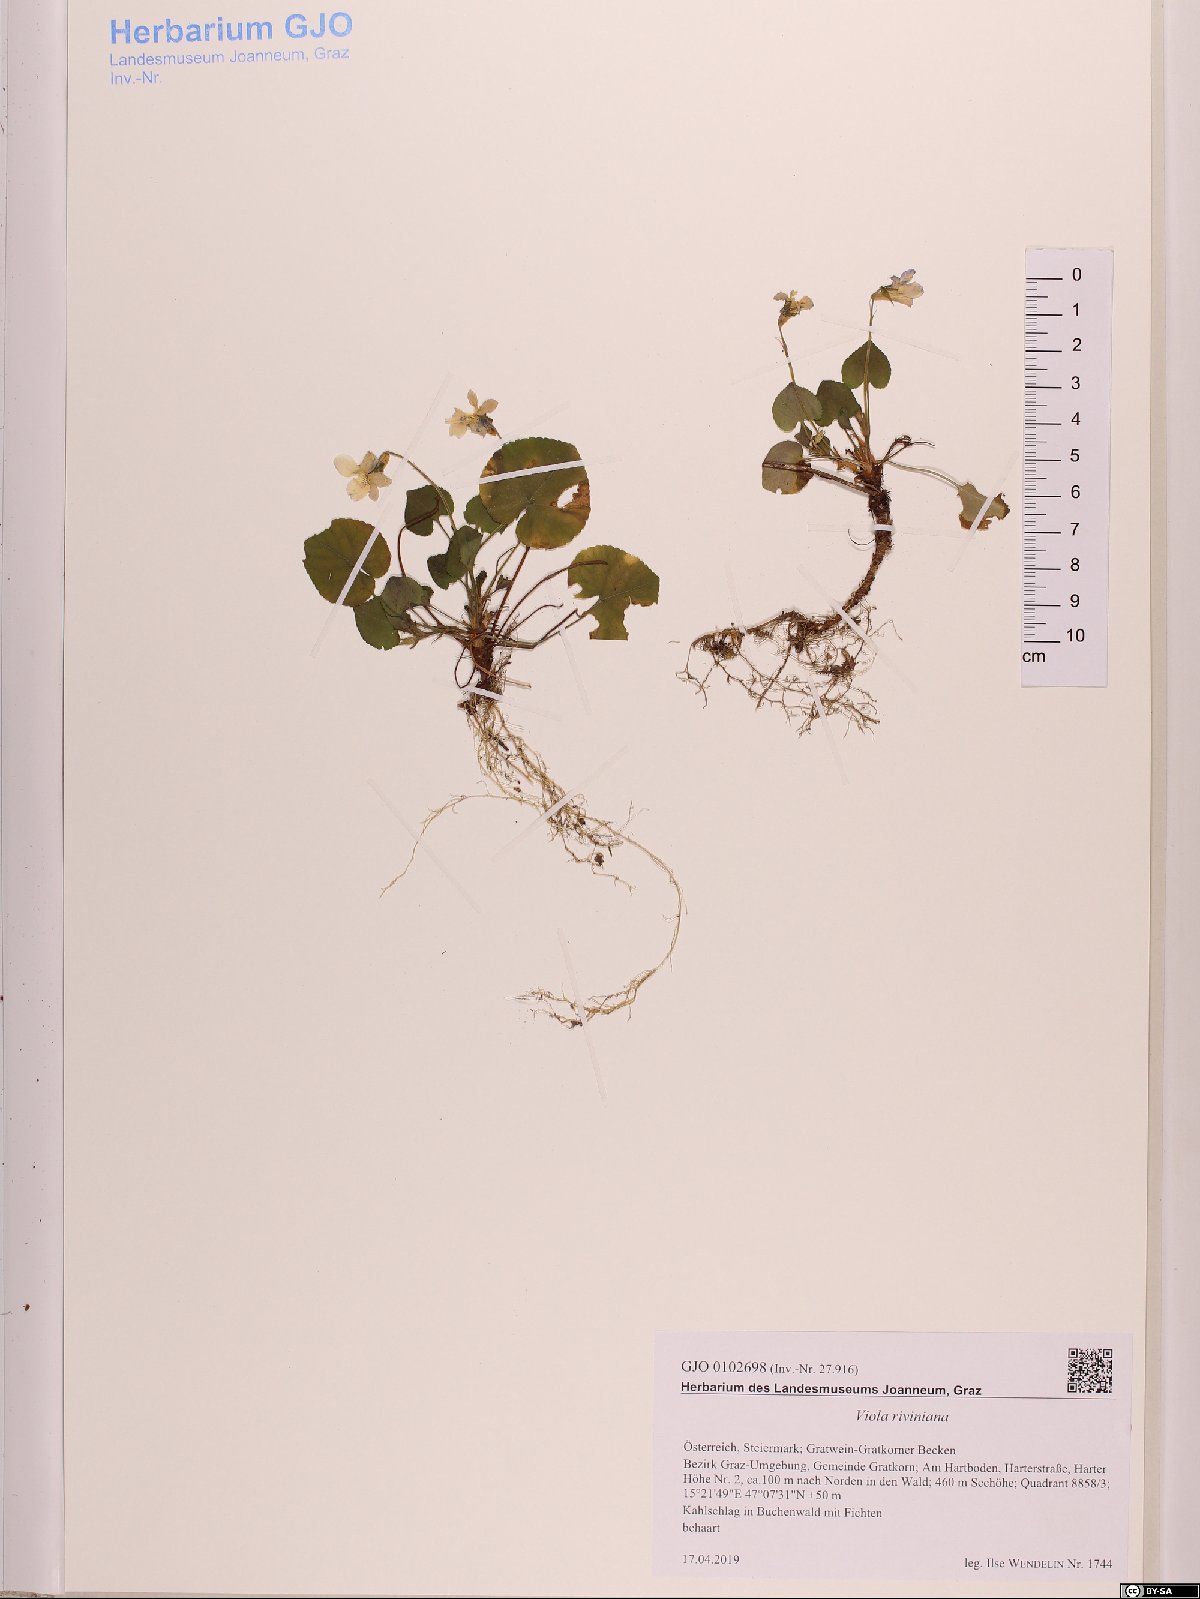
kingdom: Plantae
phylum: Tracheophyta
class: Magnoliopsida
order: Malpighiales
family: Violaceae
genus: Viola
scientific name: Viola riviniana
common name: Common dog-violet
